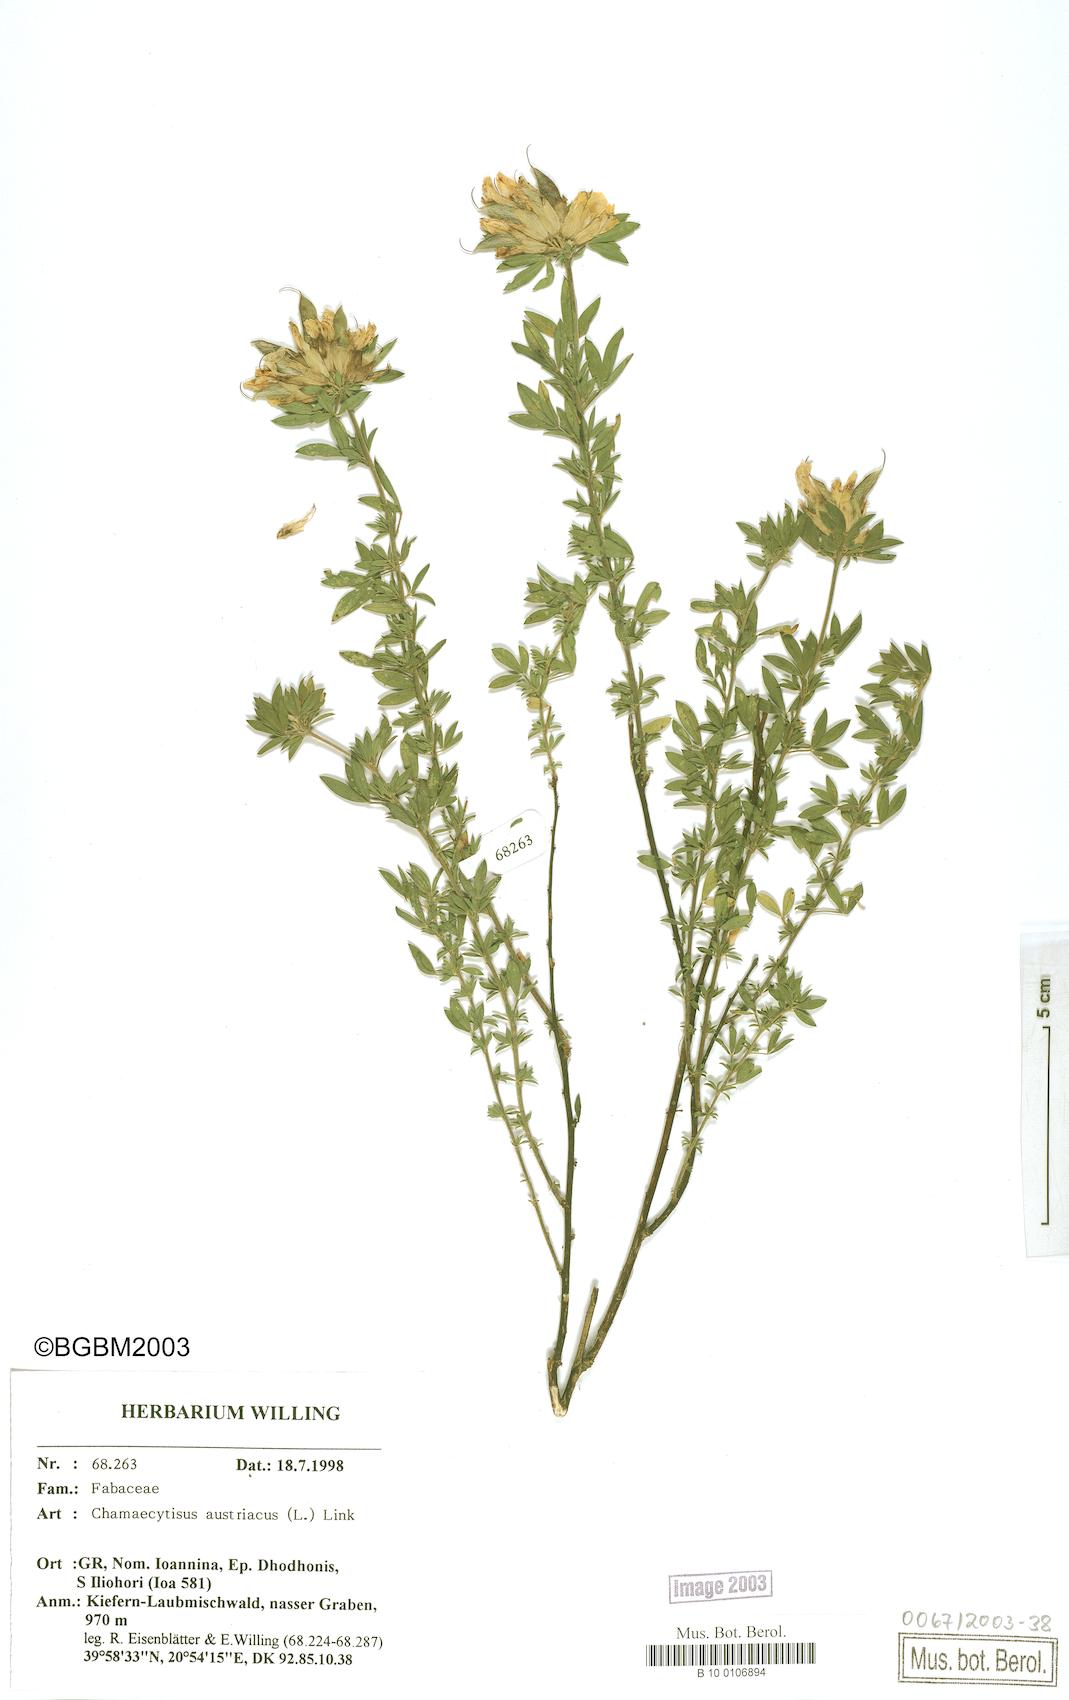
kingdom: Plantae
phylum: Tracheophyta
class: Magnoliopsida
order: Fabales
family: Fabaceae
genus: Chamaecytisus
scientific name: Chamaecytisus austriacus
